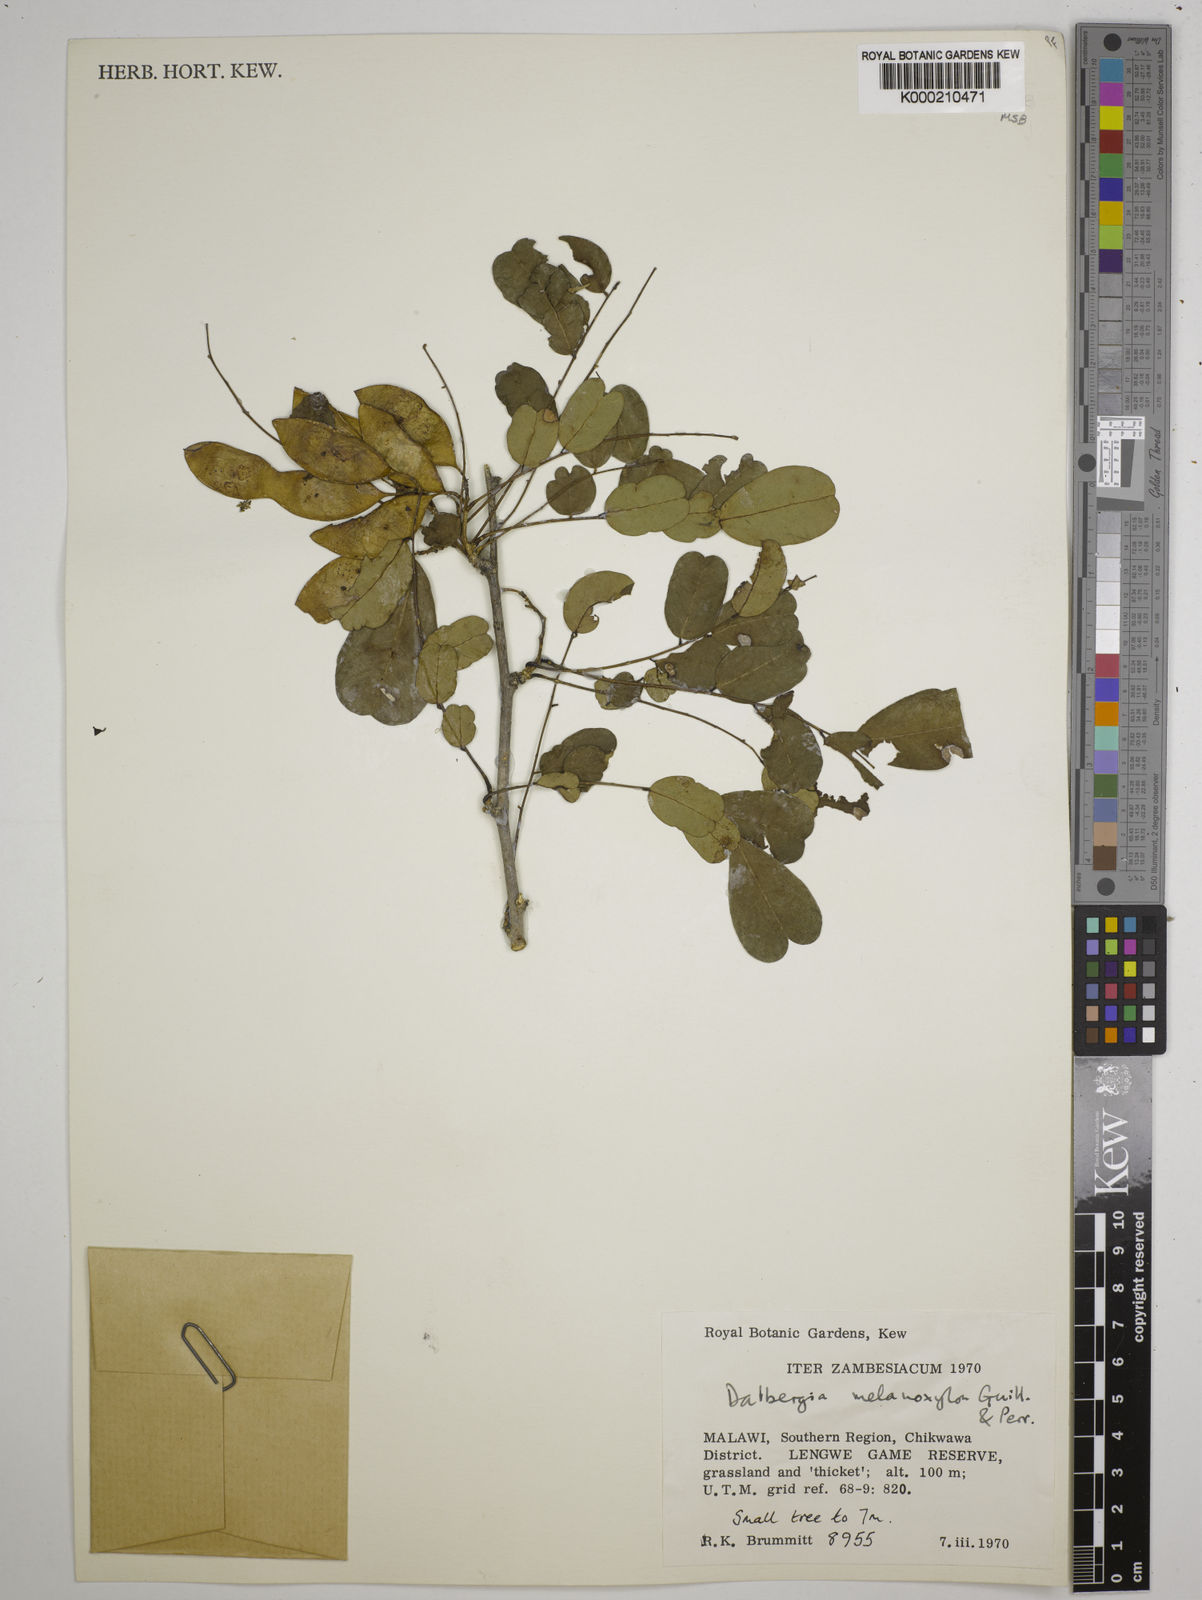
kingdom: Plantae
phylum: Tracheophyta
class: Magnoliopsida
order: Fabales
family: Fabaceae
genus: Dalbergia
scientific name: Dalbergia melanoxylon
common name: African blackwood
